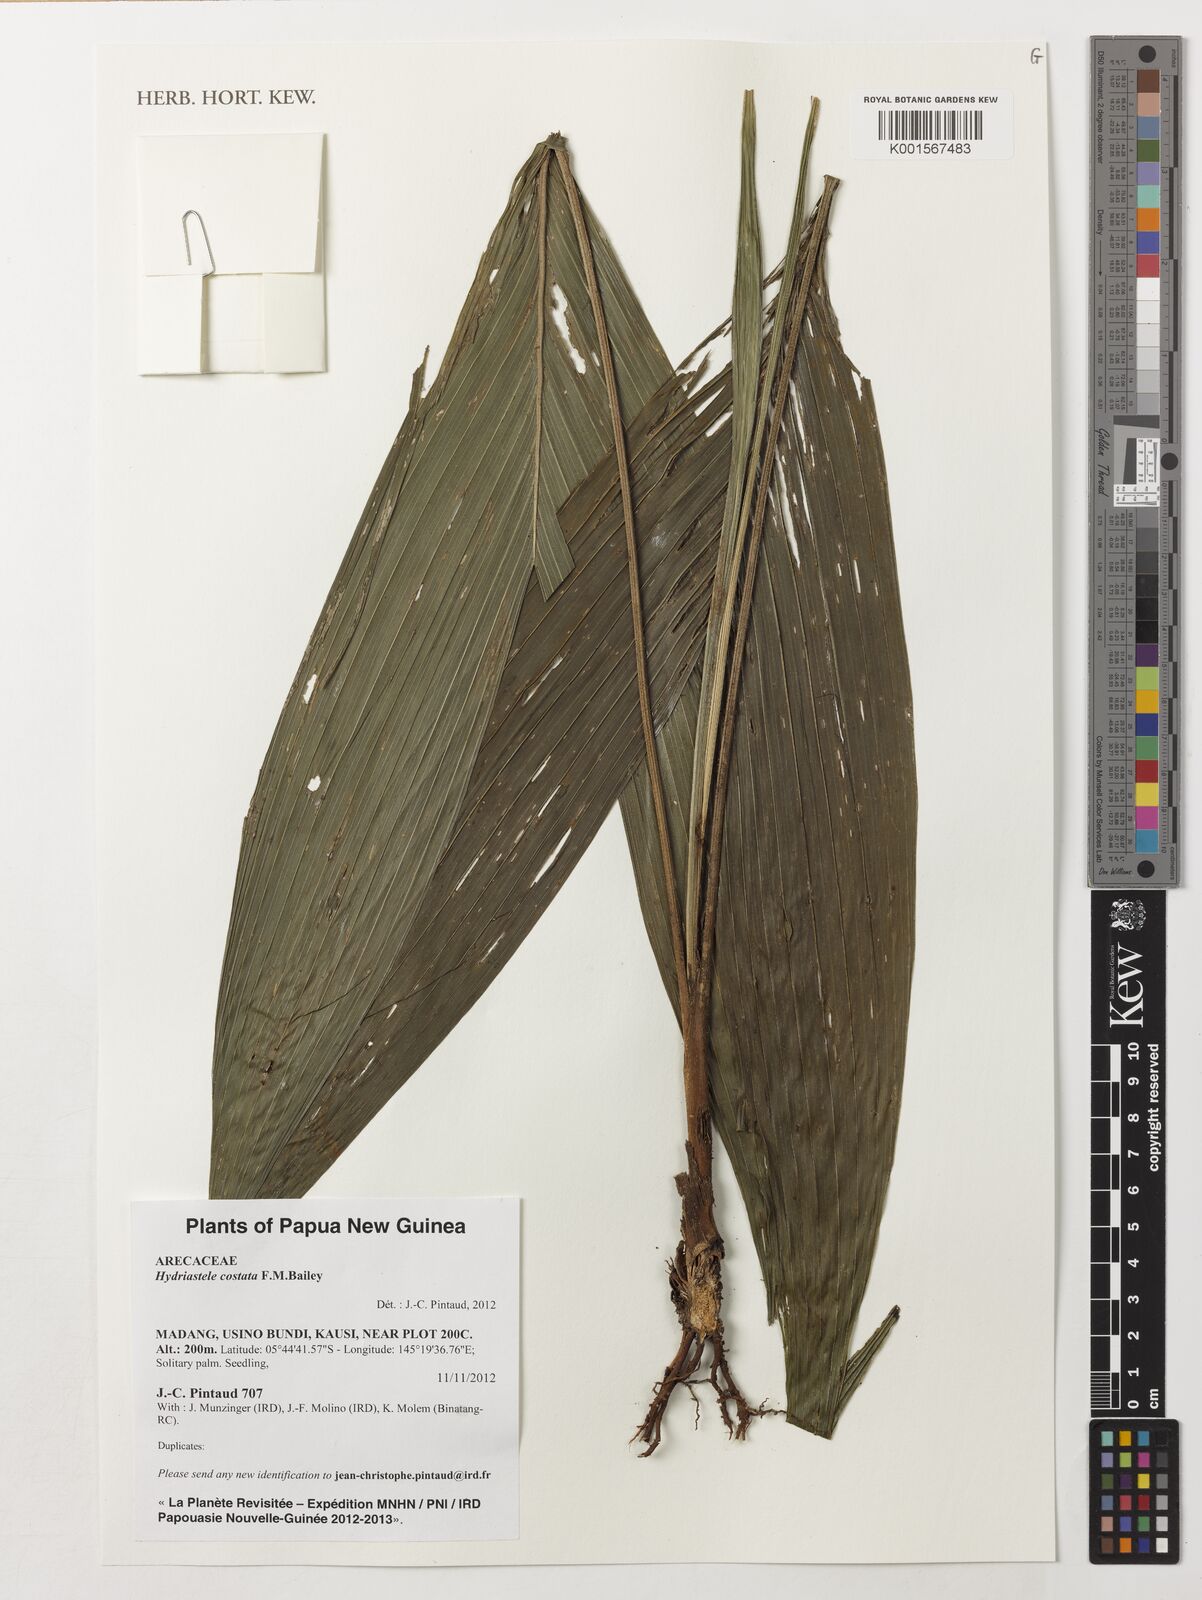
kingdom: Plantae
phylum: Tracheophyta
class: Liliopsida
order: Arecales
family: Arecaceae
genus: Hydriastele
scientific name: Hydriastele costata
